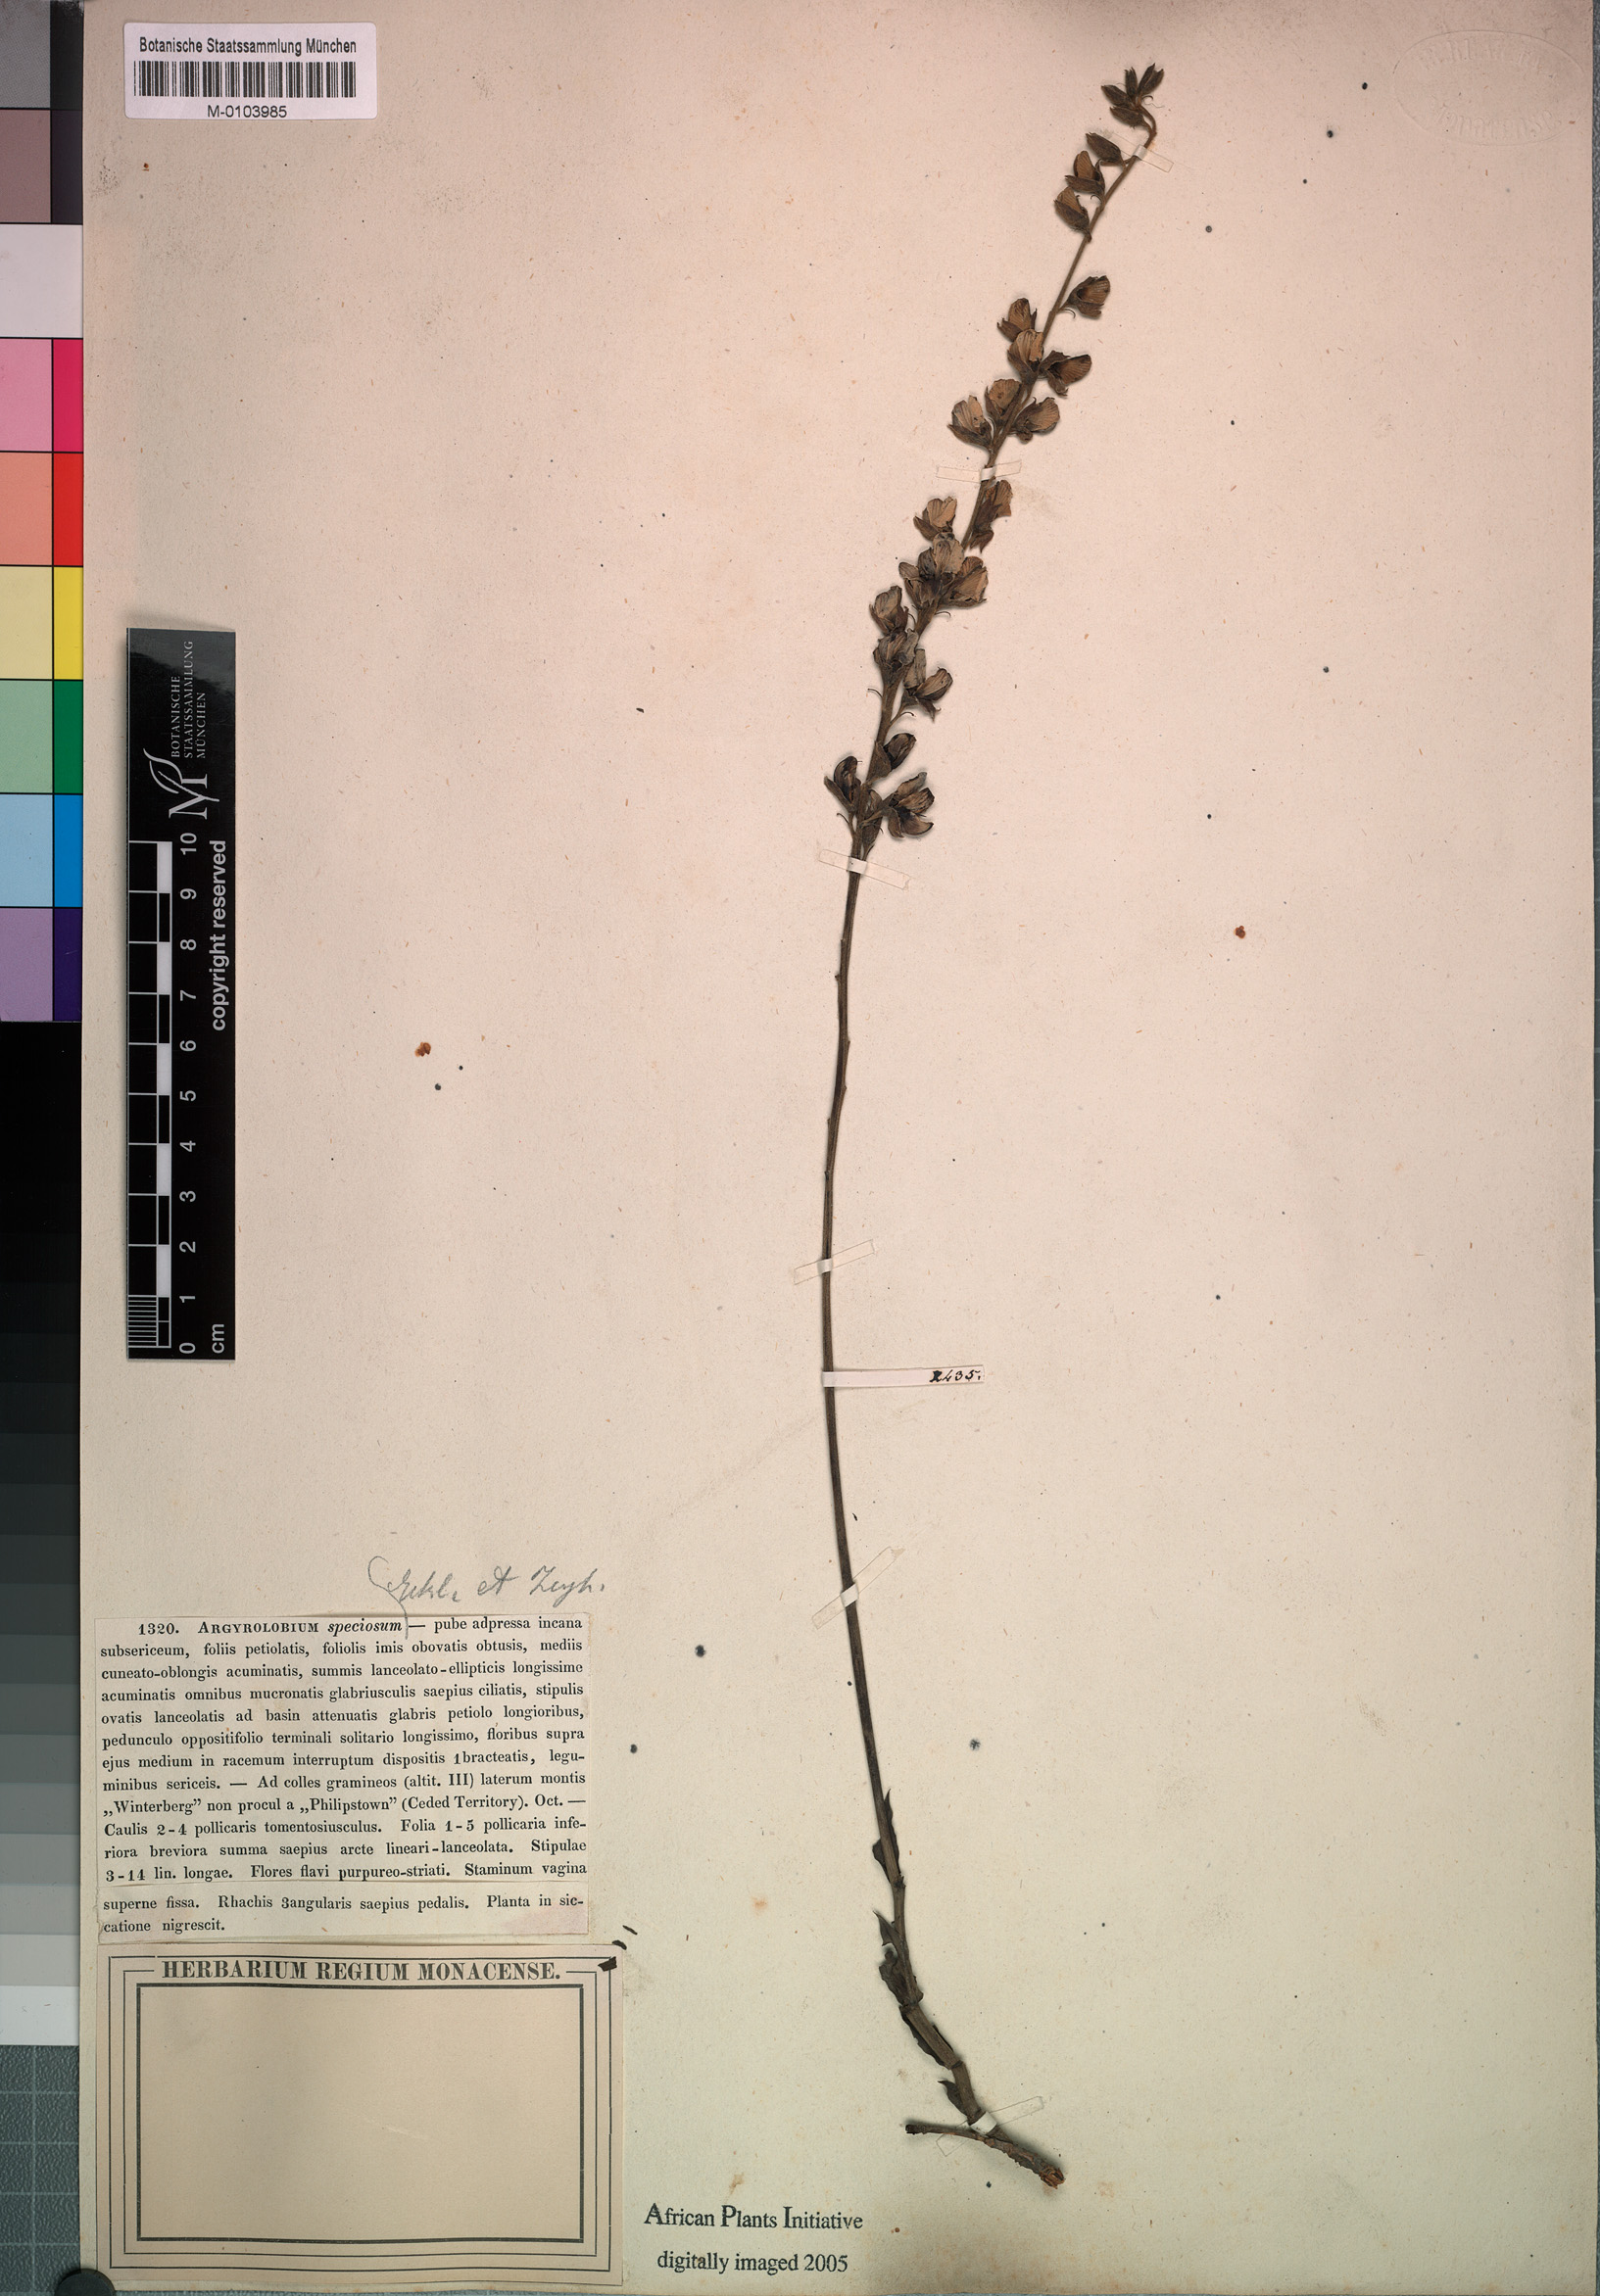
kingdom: Plantae
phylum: Tracheophyta
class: Magnoliopsida
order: Fabales
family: Fabaceae
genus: Argyrolobium
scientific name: Argyrolobium speciosum
